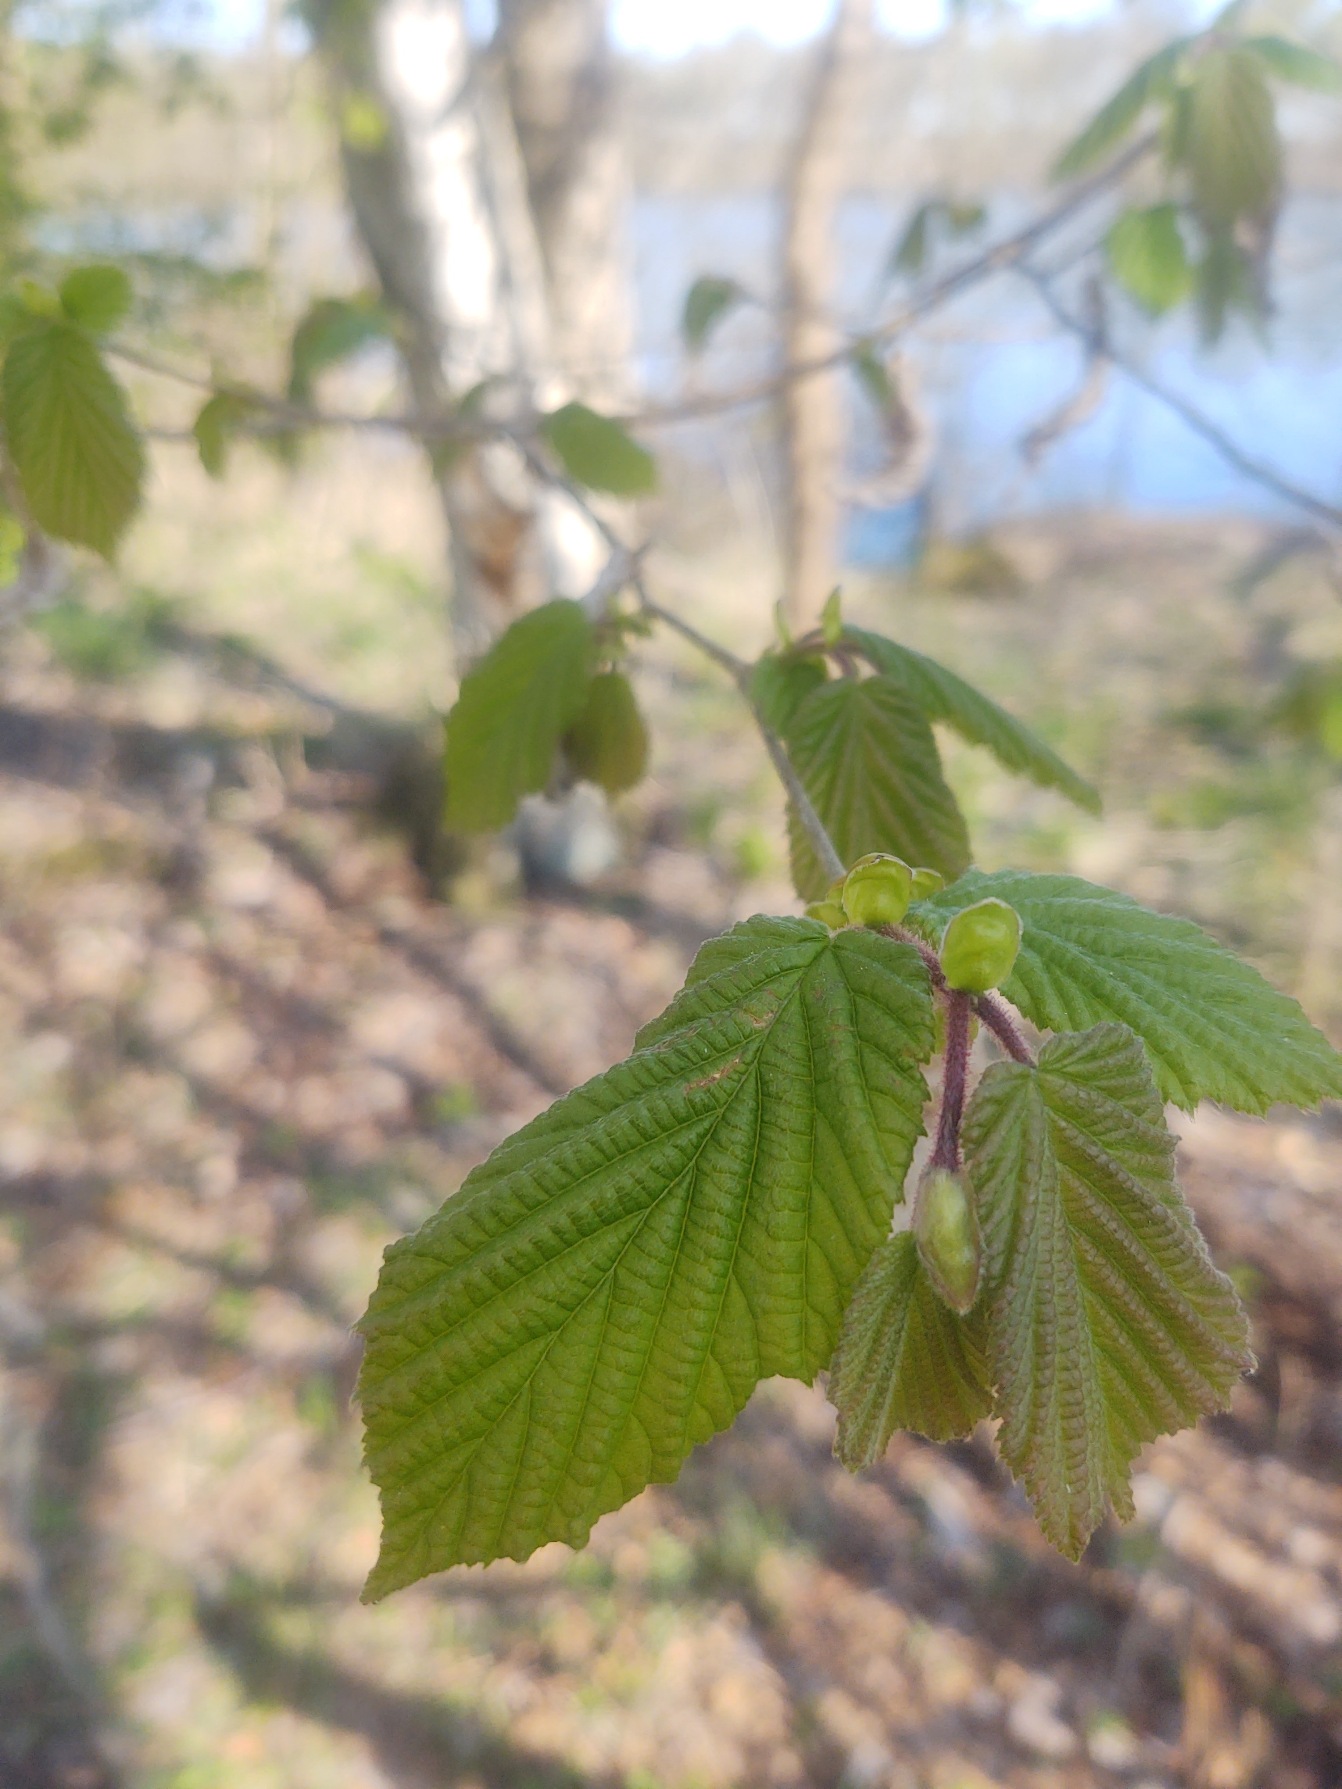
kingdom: Plantae
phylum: Tracheophyta
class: Magnoliopsida
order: Fagales
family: Betulaceae
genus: Corylus
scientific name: Corylus avellana
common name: Hassel
